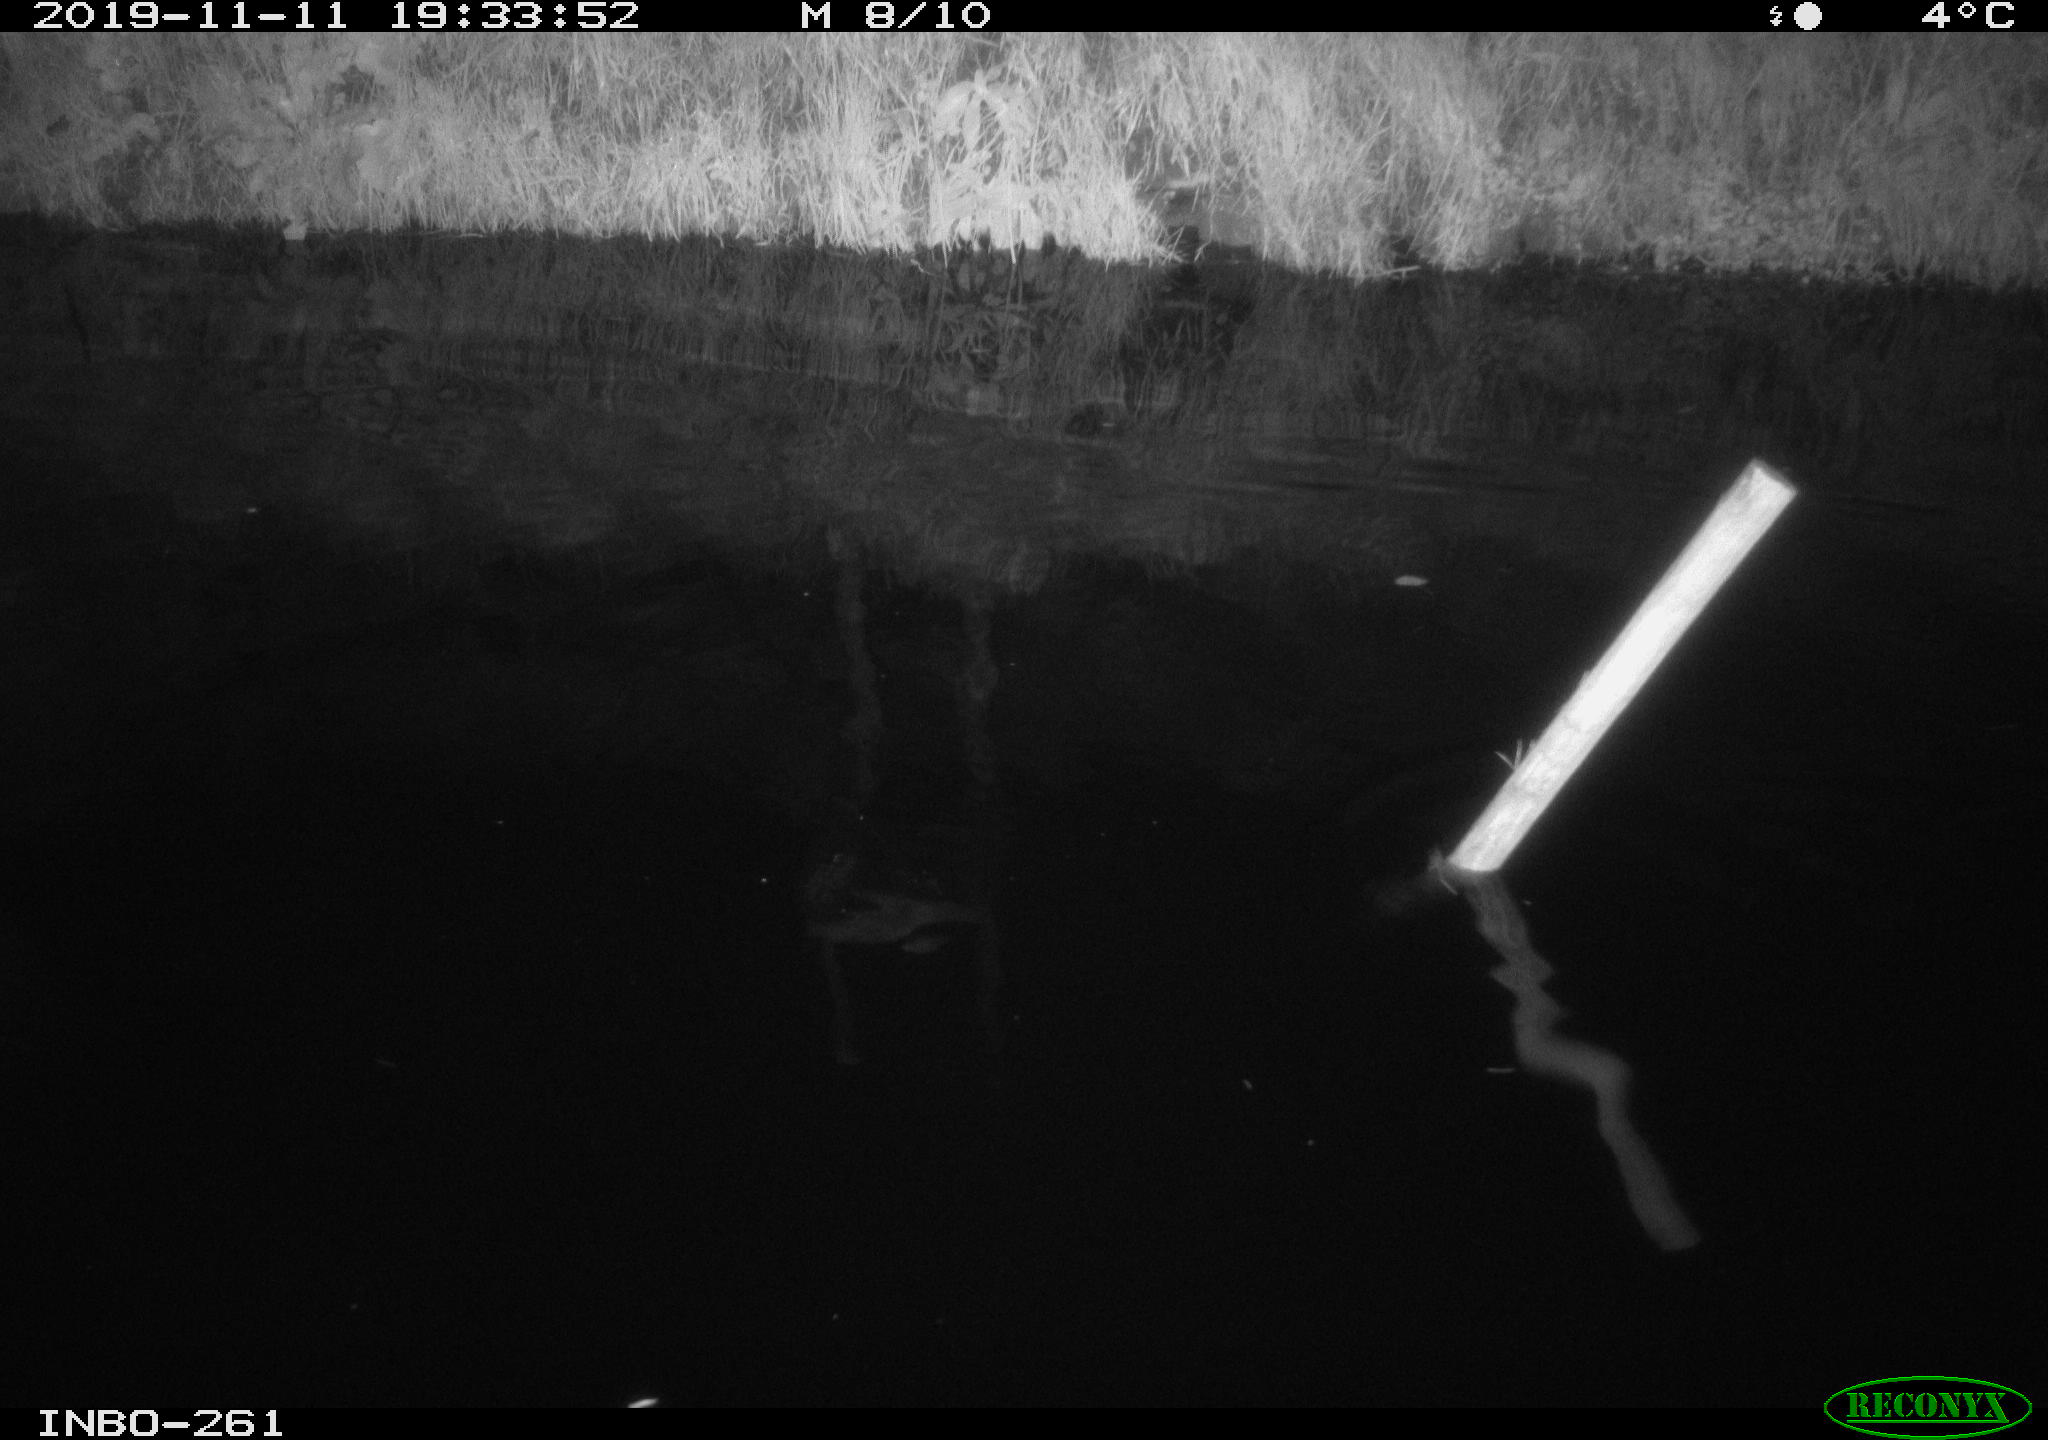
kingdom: Animalia
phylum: Chordata
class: Aves
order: Anseriformes
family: Anatidae
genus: Anas
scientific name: Anas platyrhynchos
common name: Mallard
